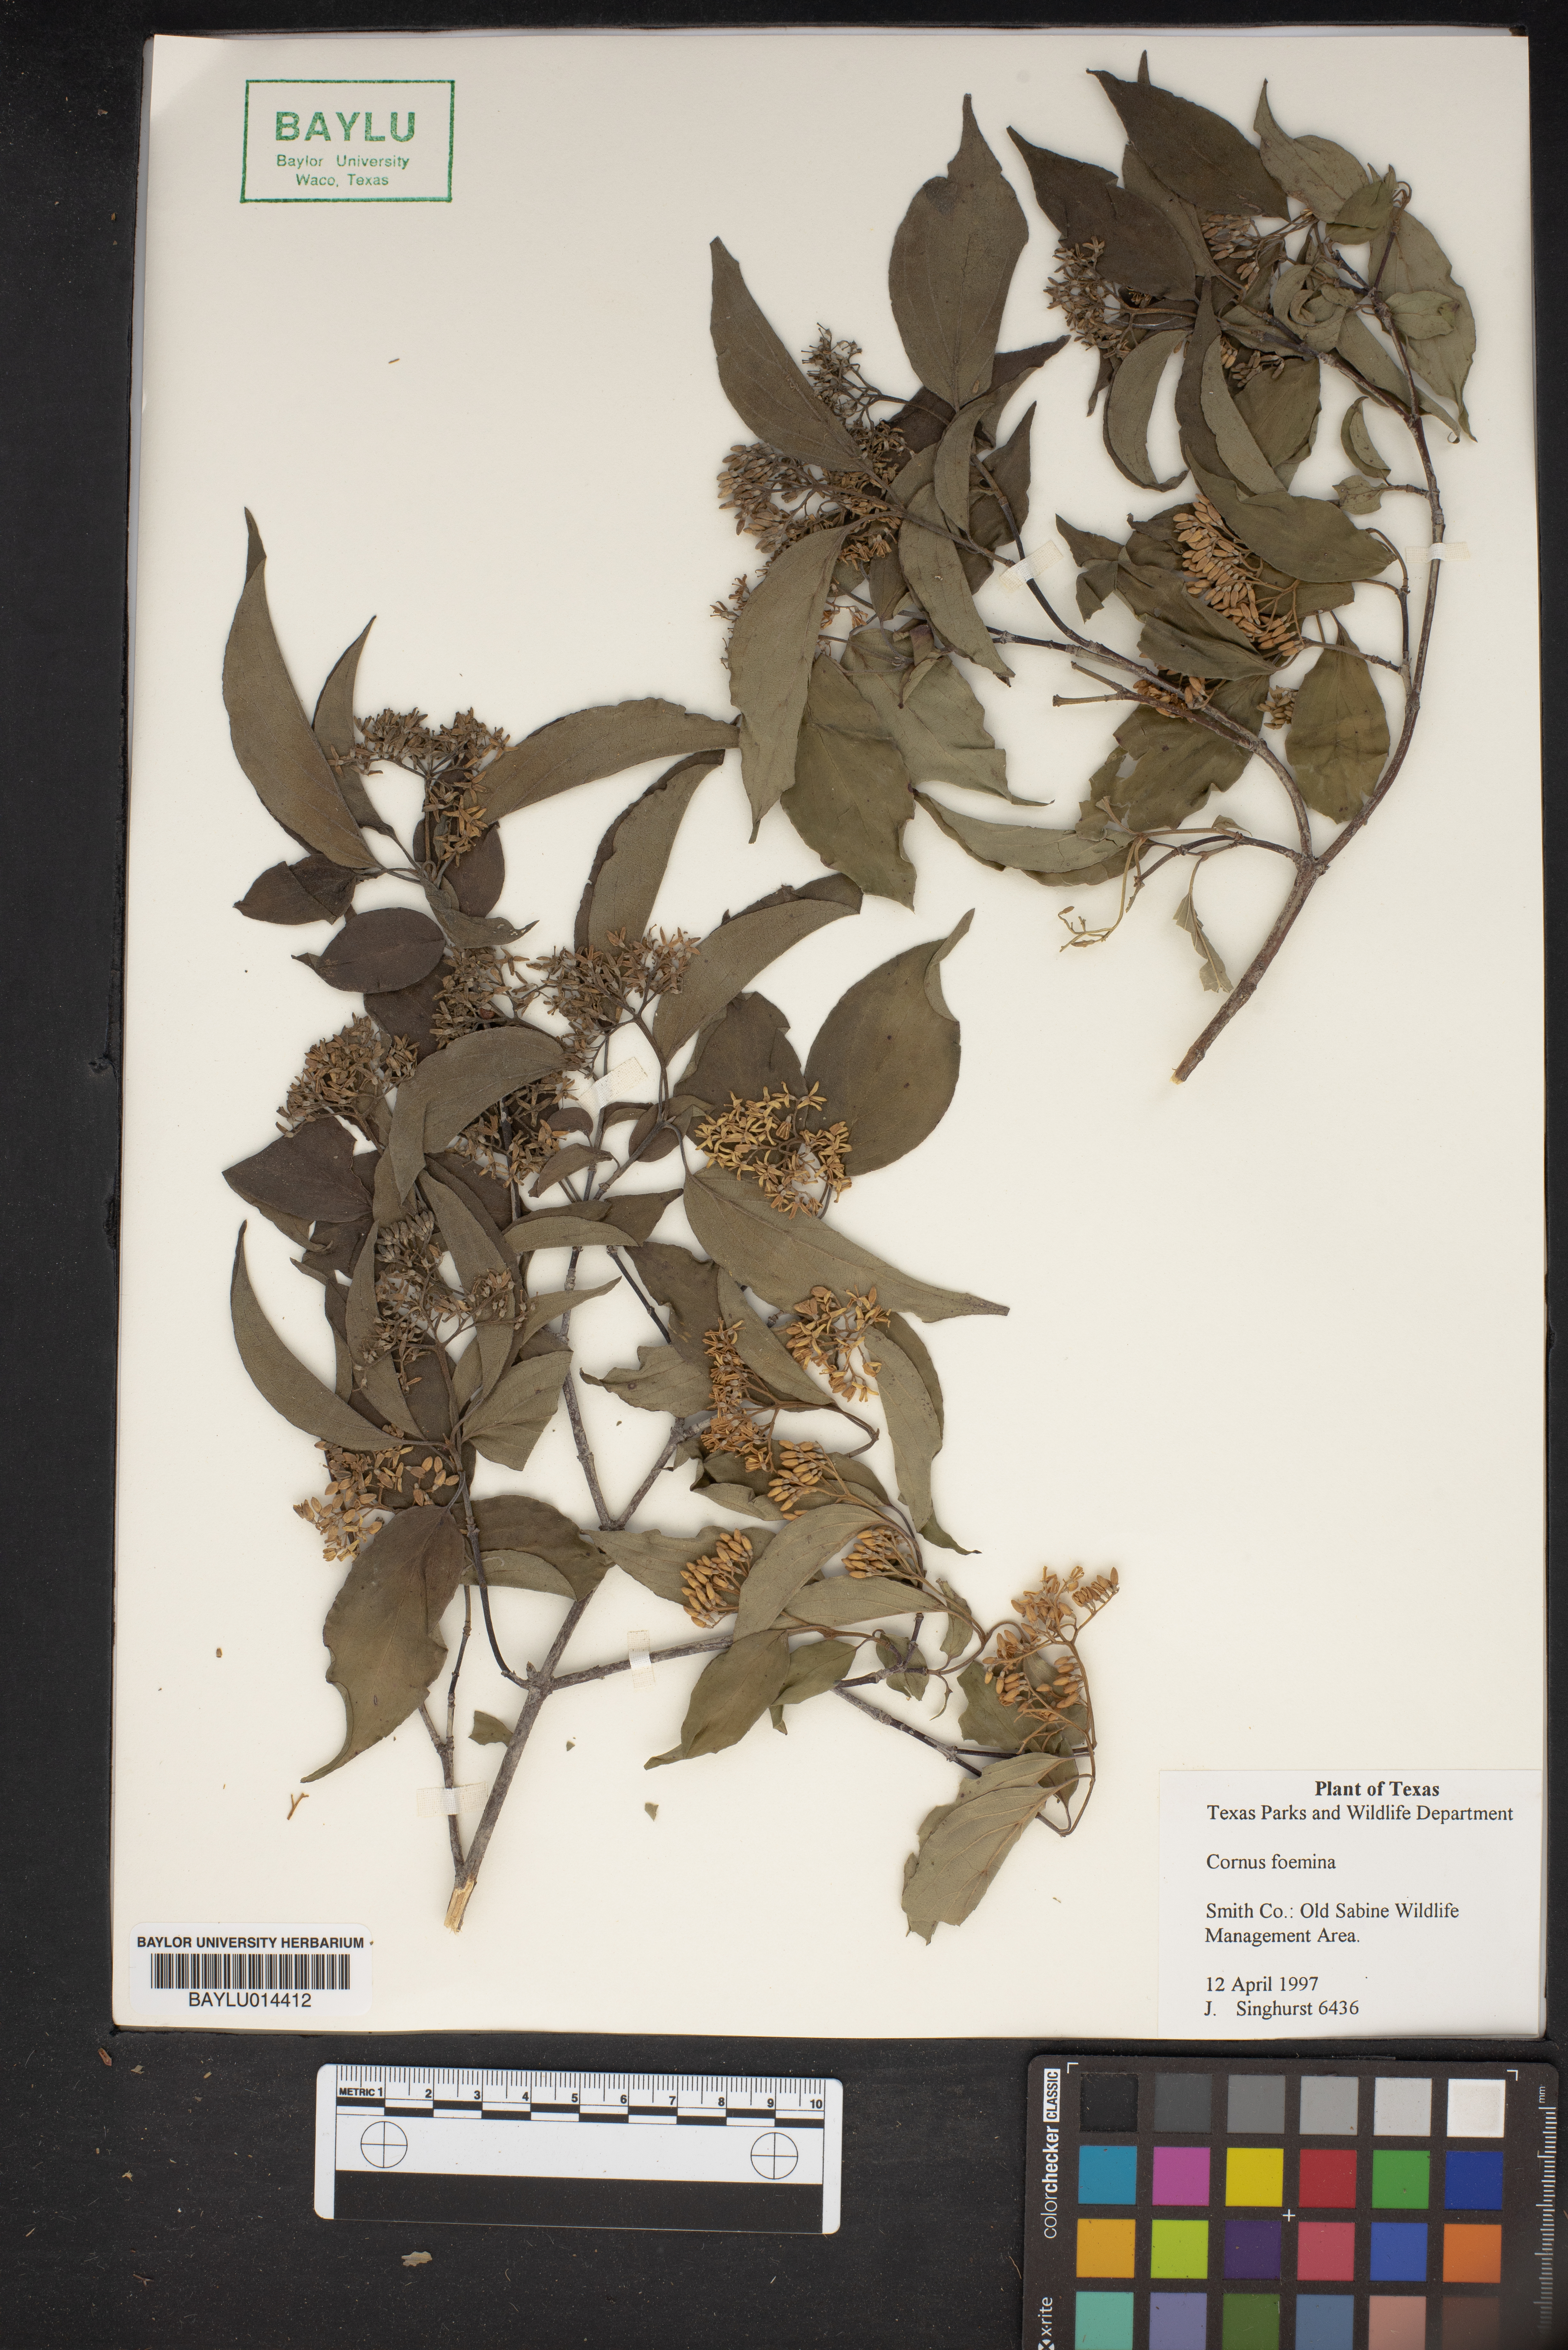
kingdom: Plantae
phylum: Tracheophyta
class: Magnoliopsida
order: Cornales
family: Cornaceae
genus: Cornus
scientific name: Cornus foemina
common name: Swamp dogwood
